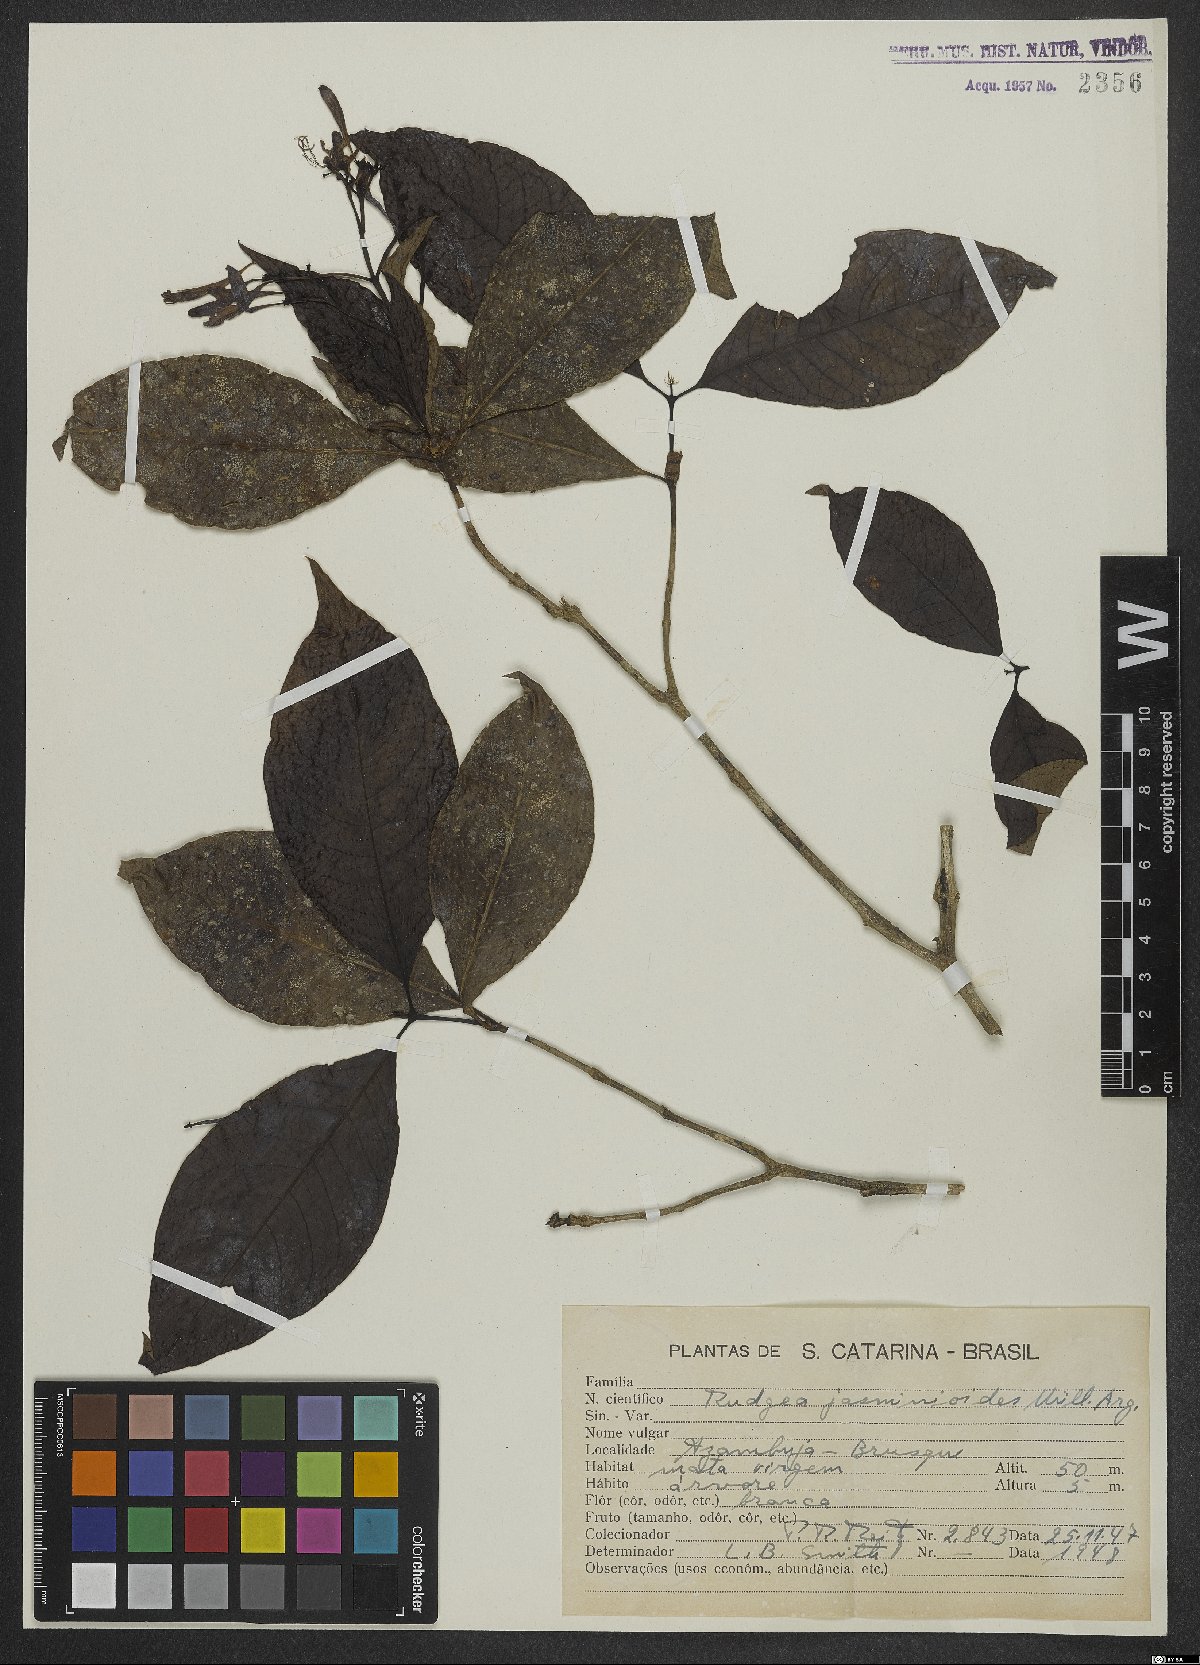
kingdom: Plantae
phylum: Tracheophyta
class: Magnoliopsida
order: Gentianales
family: Rubiaceae
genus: Rudgea
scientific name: Rudgea jasminoides
